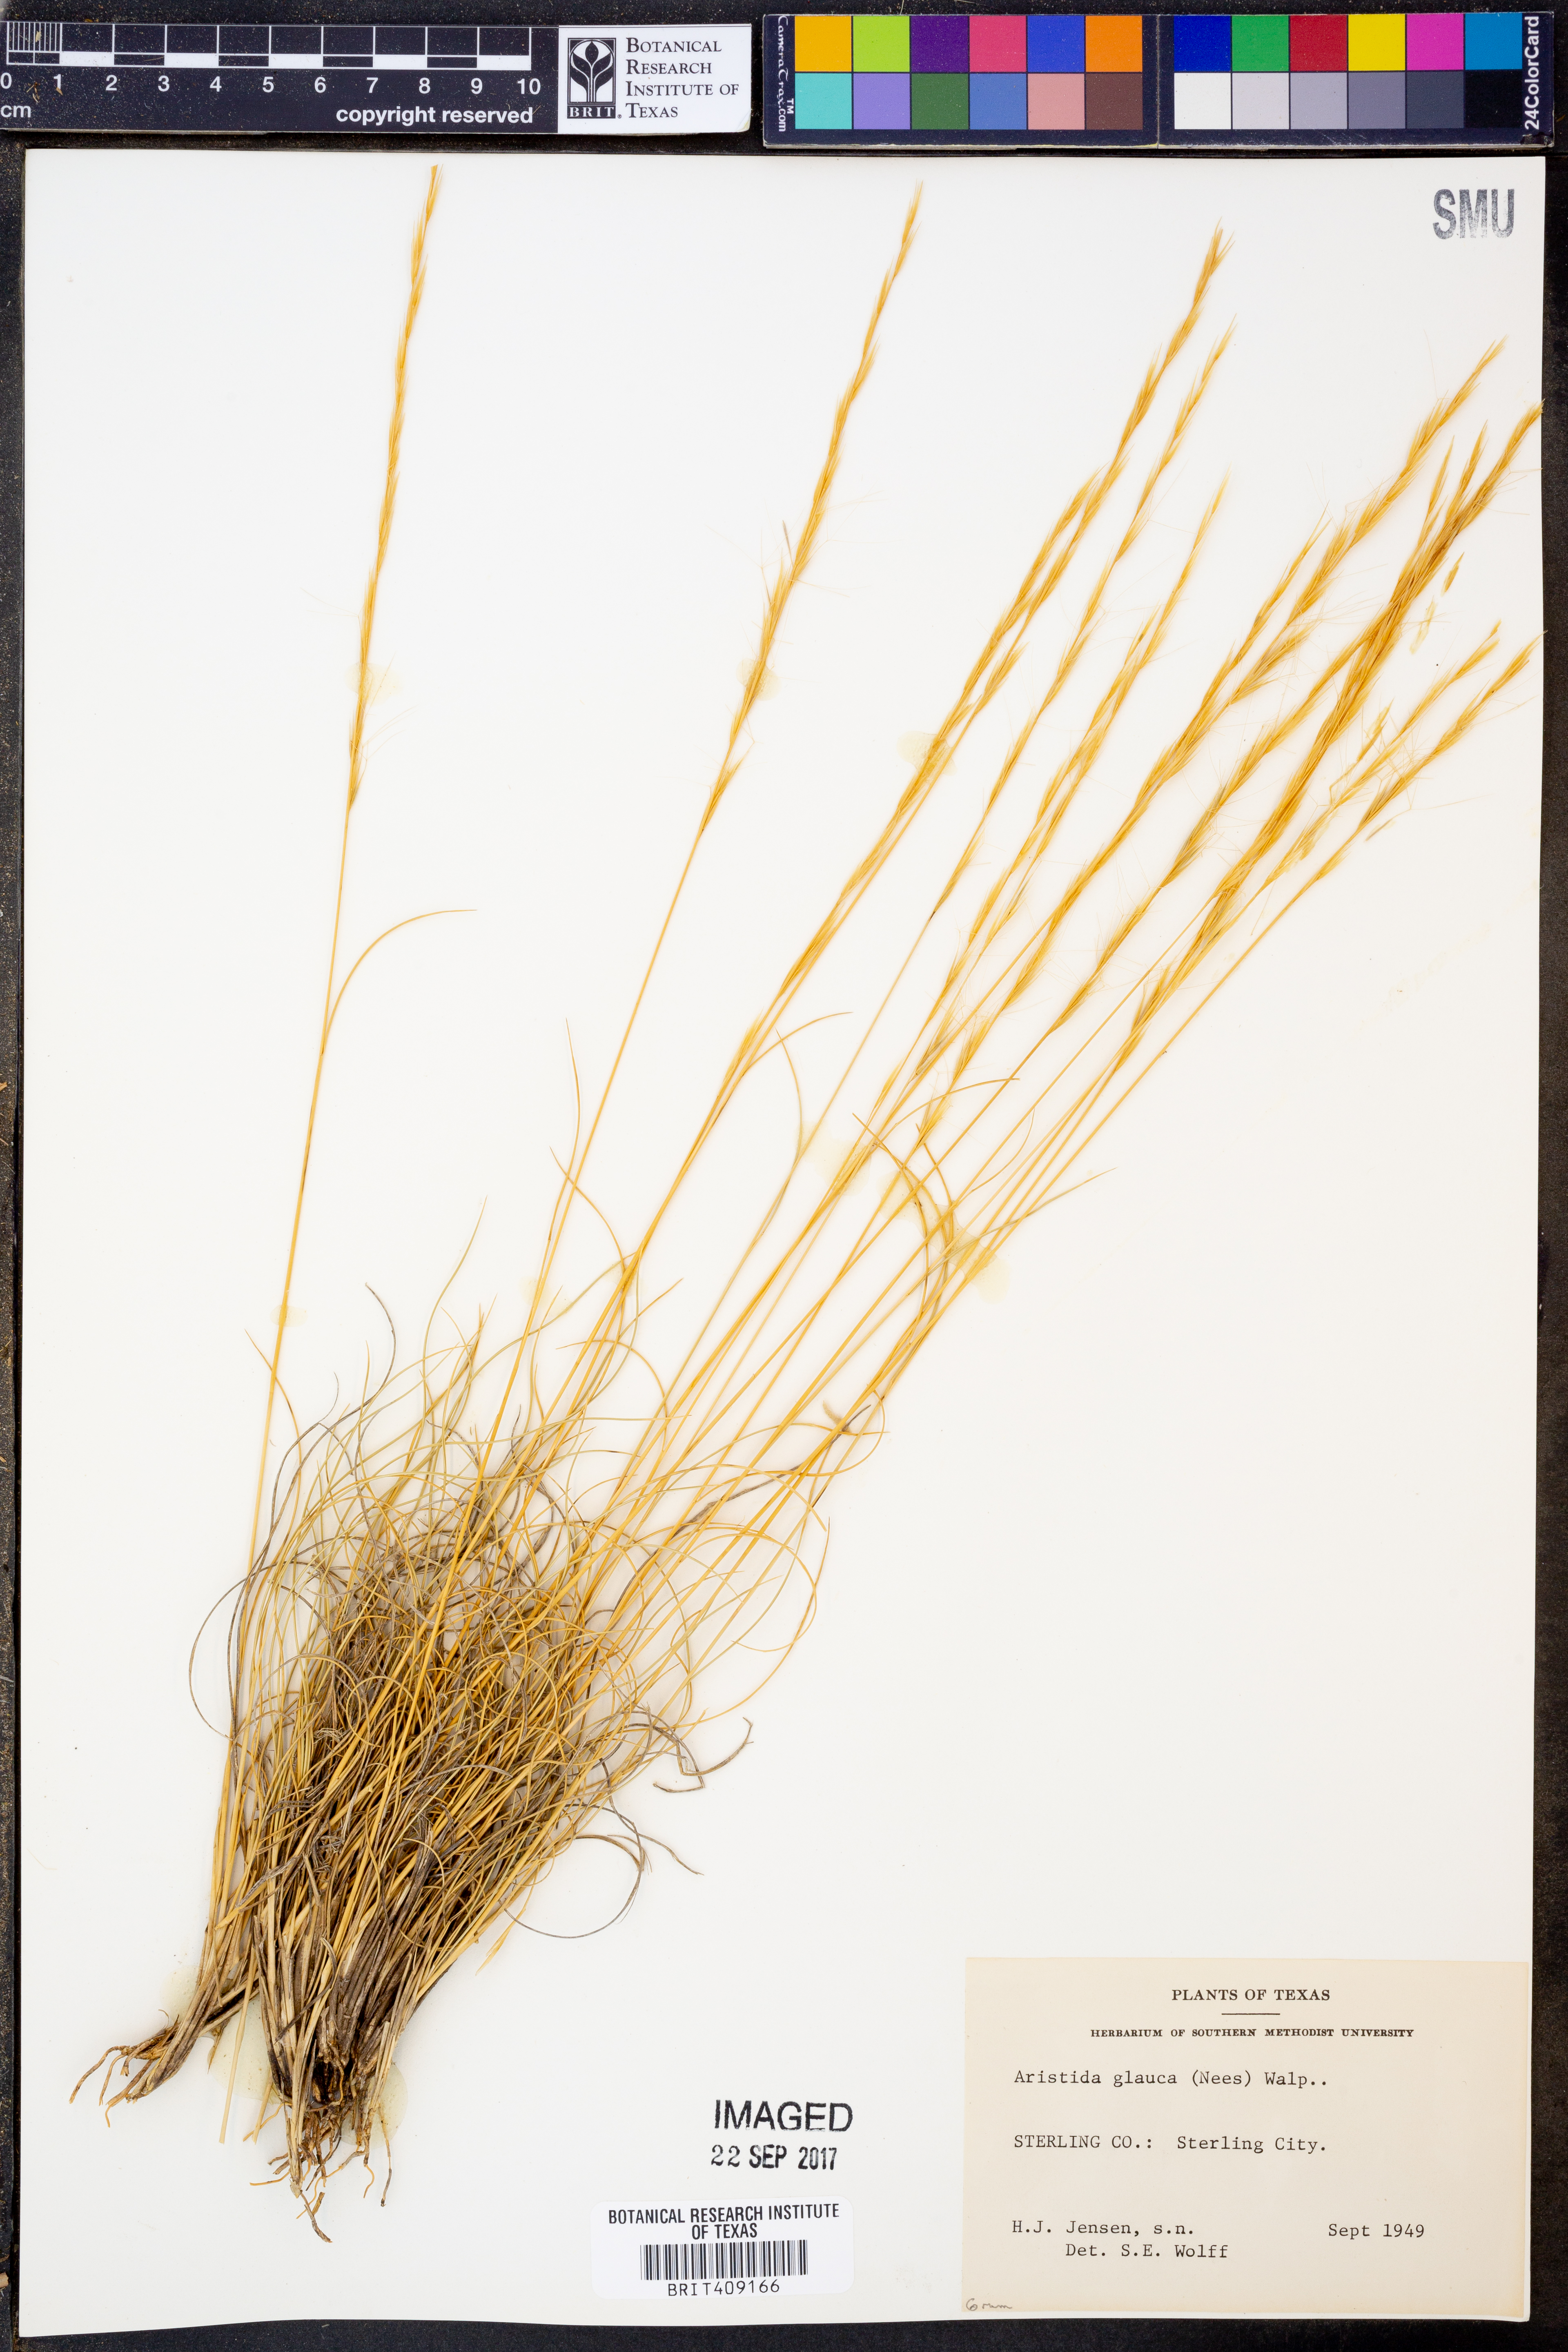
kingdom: Plantae
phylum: Tracheophyta
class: Liliopsida
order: Poales
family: Poaceae
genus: Aristida
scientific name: Aristida glauca
